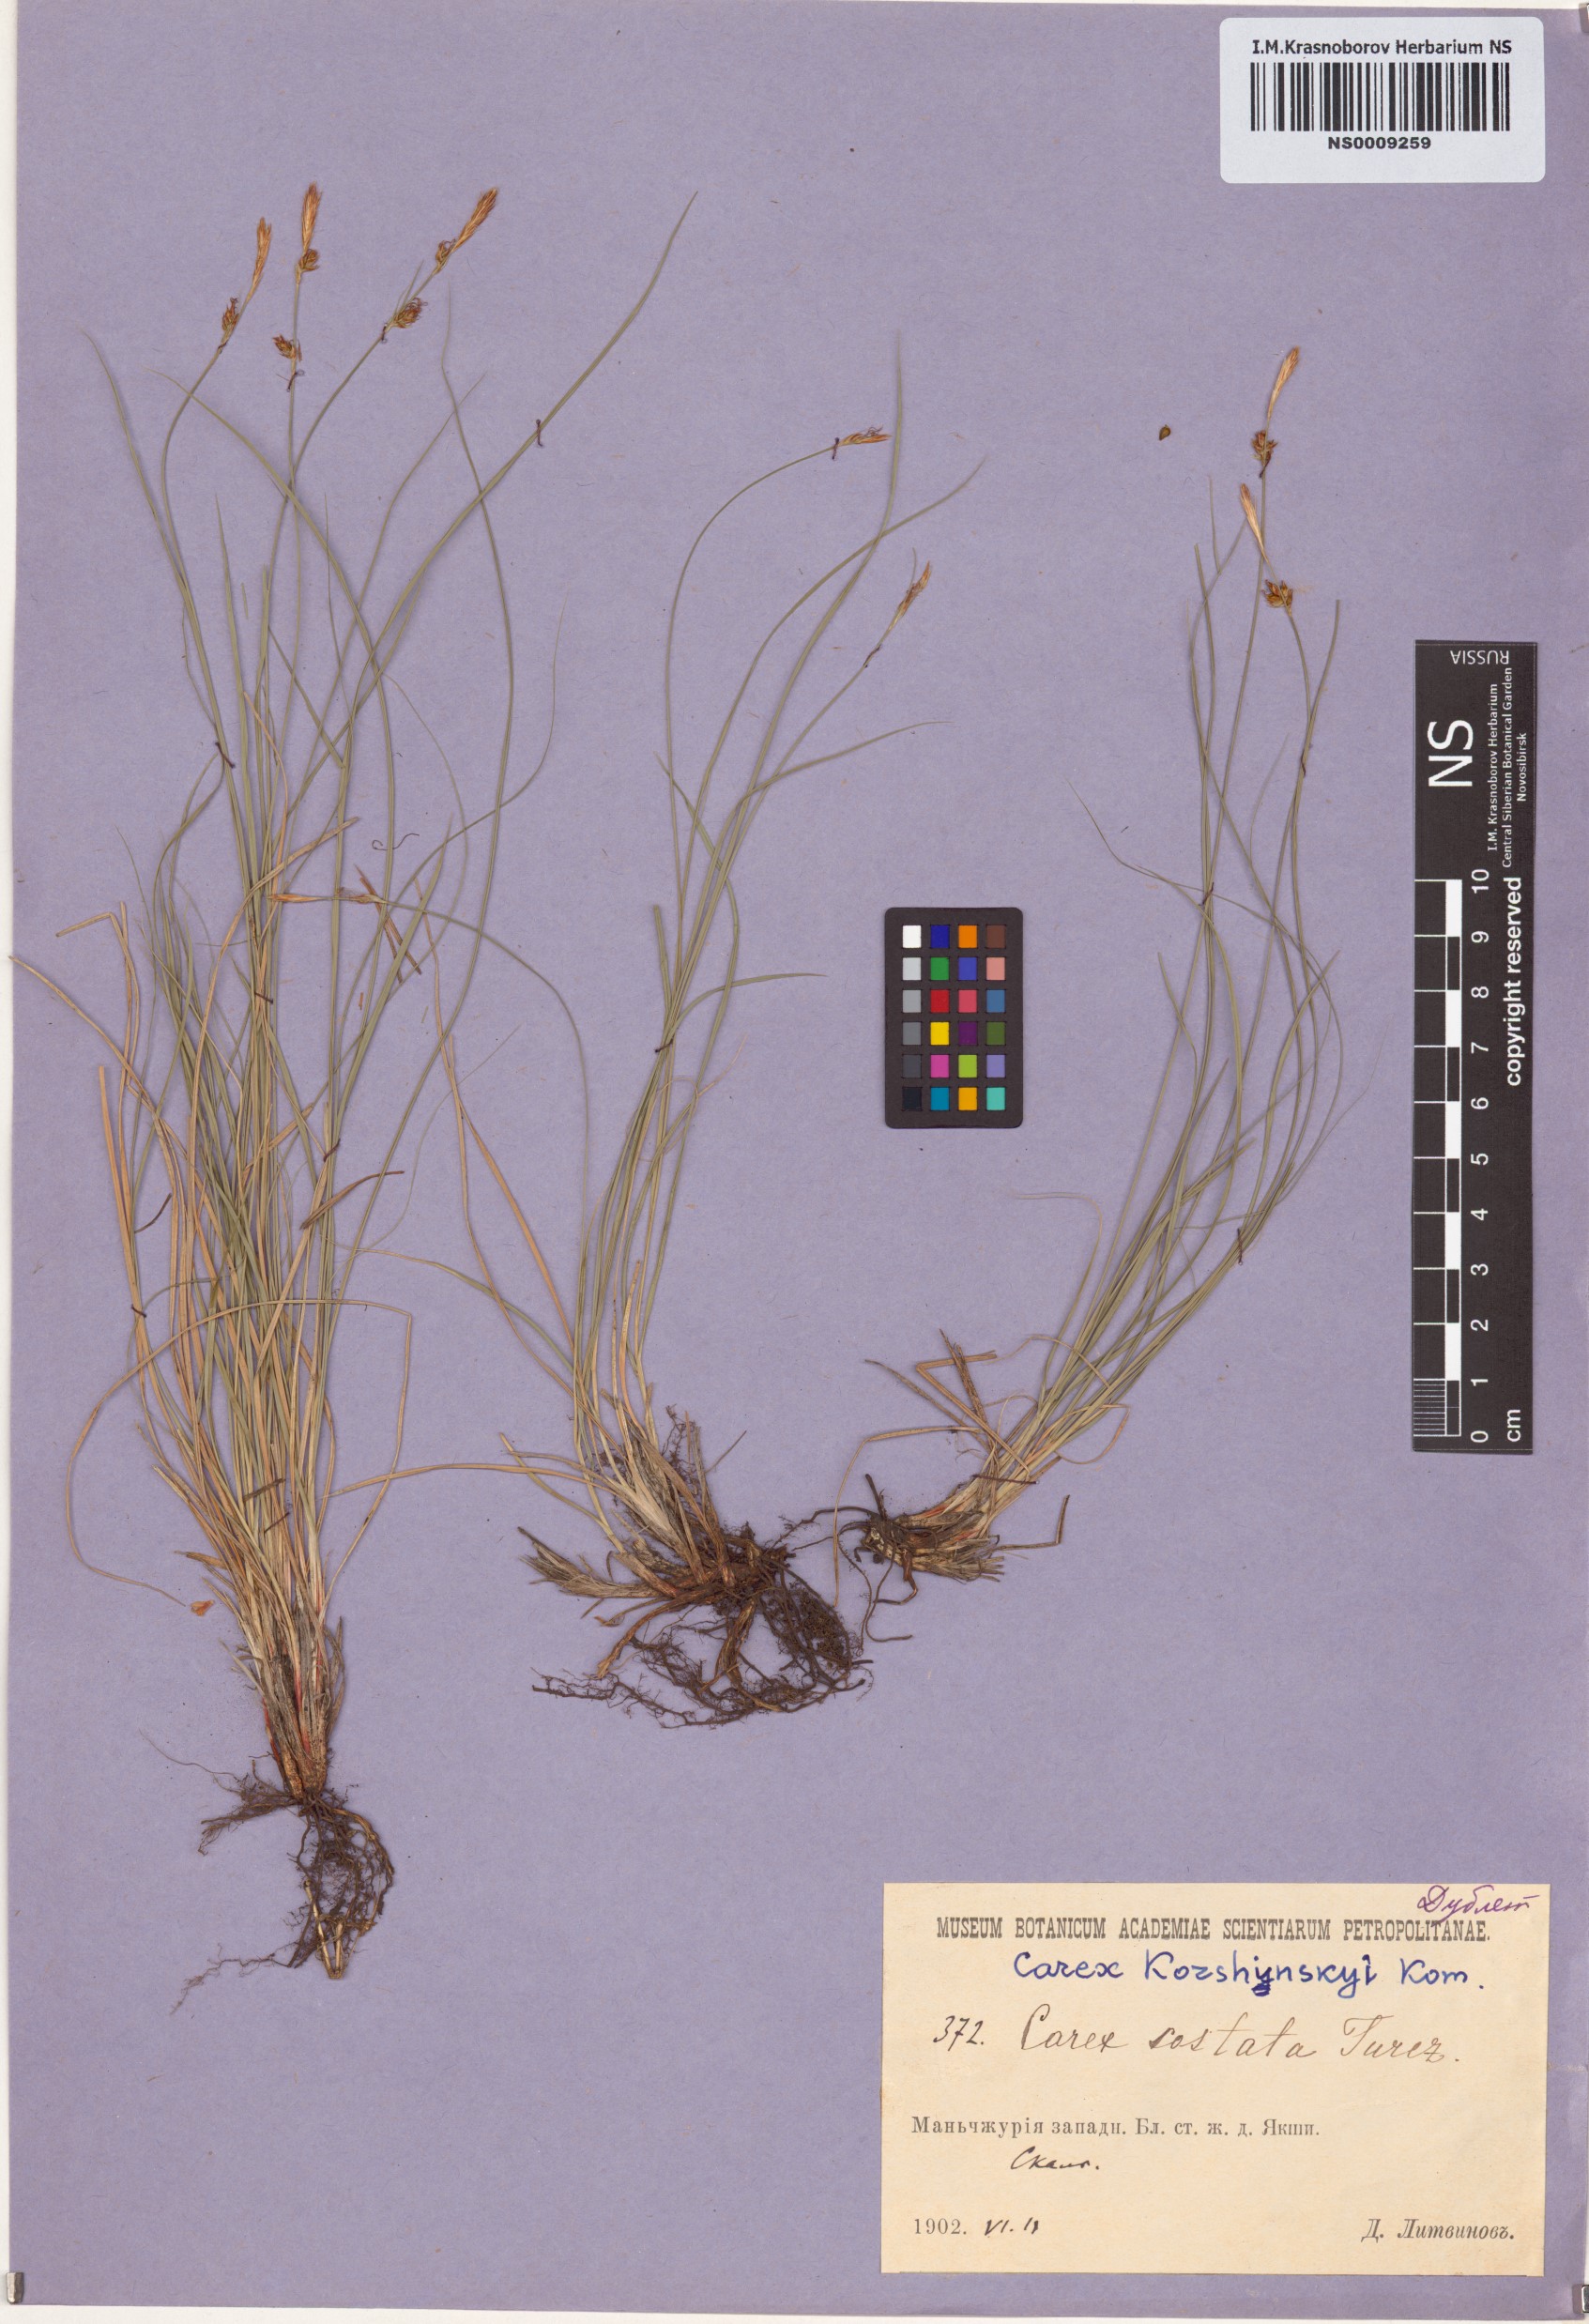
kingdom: Plantae
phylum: Tracheophyta
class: Liliopsida
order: Poales
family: Cyperaceae
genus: Carex
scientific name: Carex korshinskyi
